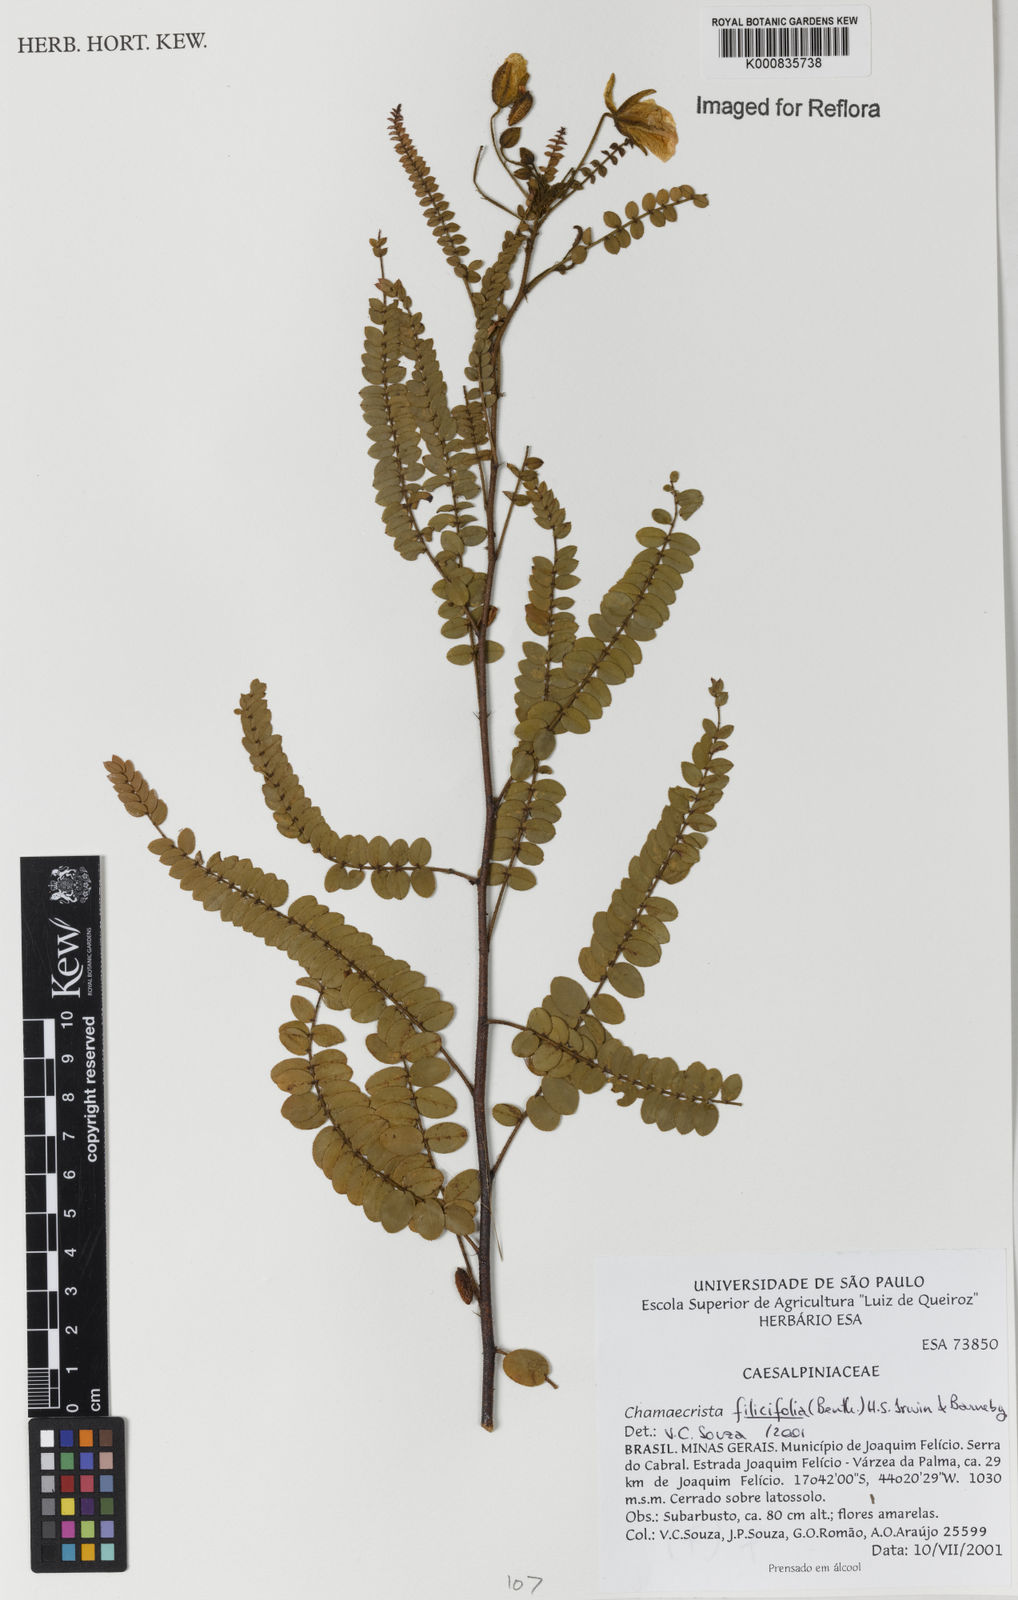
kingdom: Plantae
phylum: Tracheophyta
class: Magnoliopsida
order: Fabales
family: Fabaceae
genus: Chamaecrista
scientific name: Chamaecrista filicifolia
